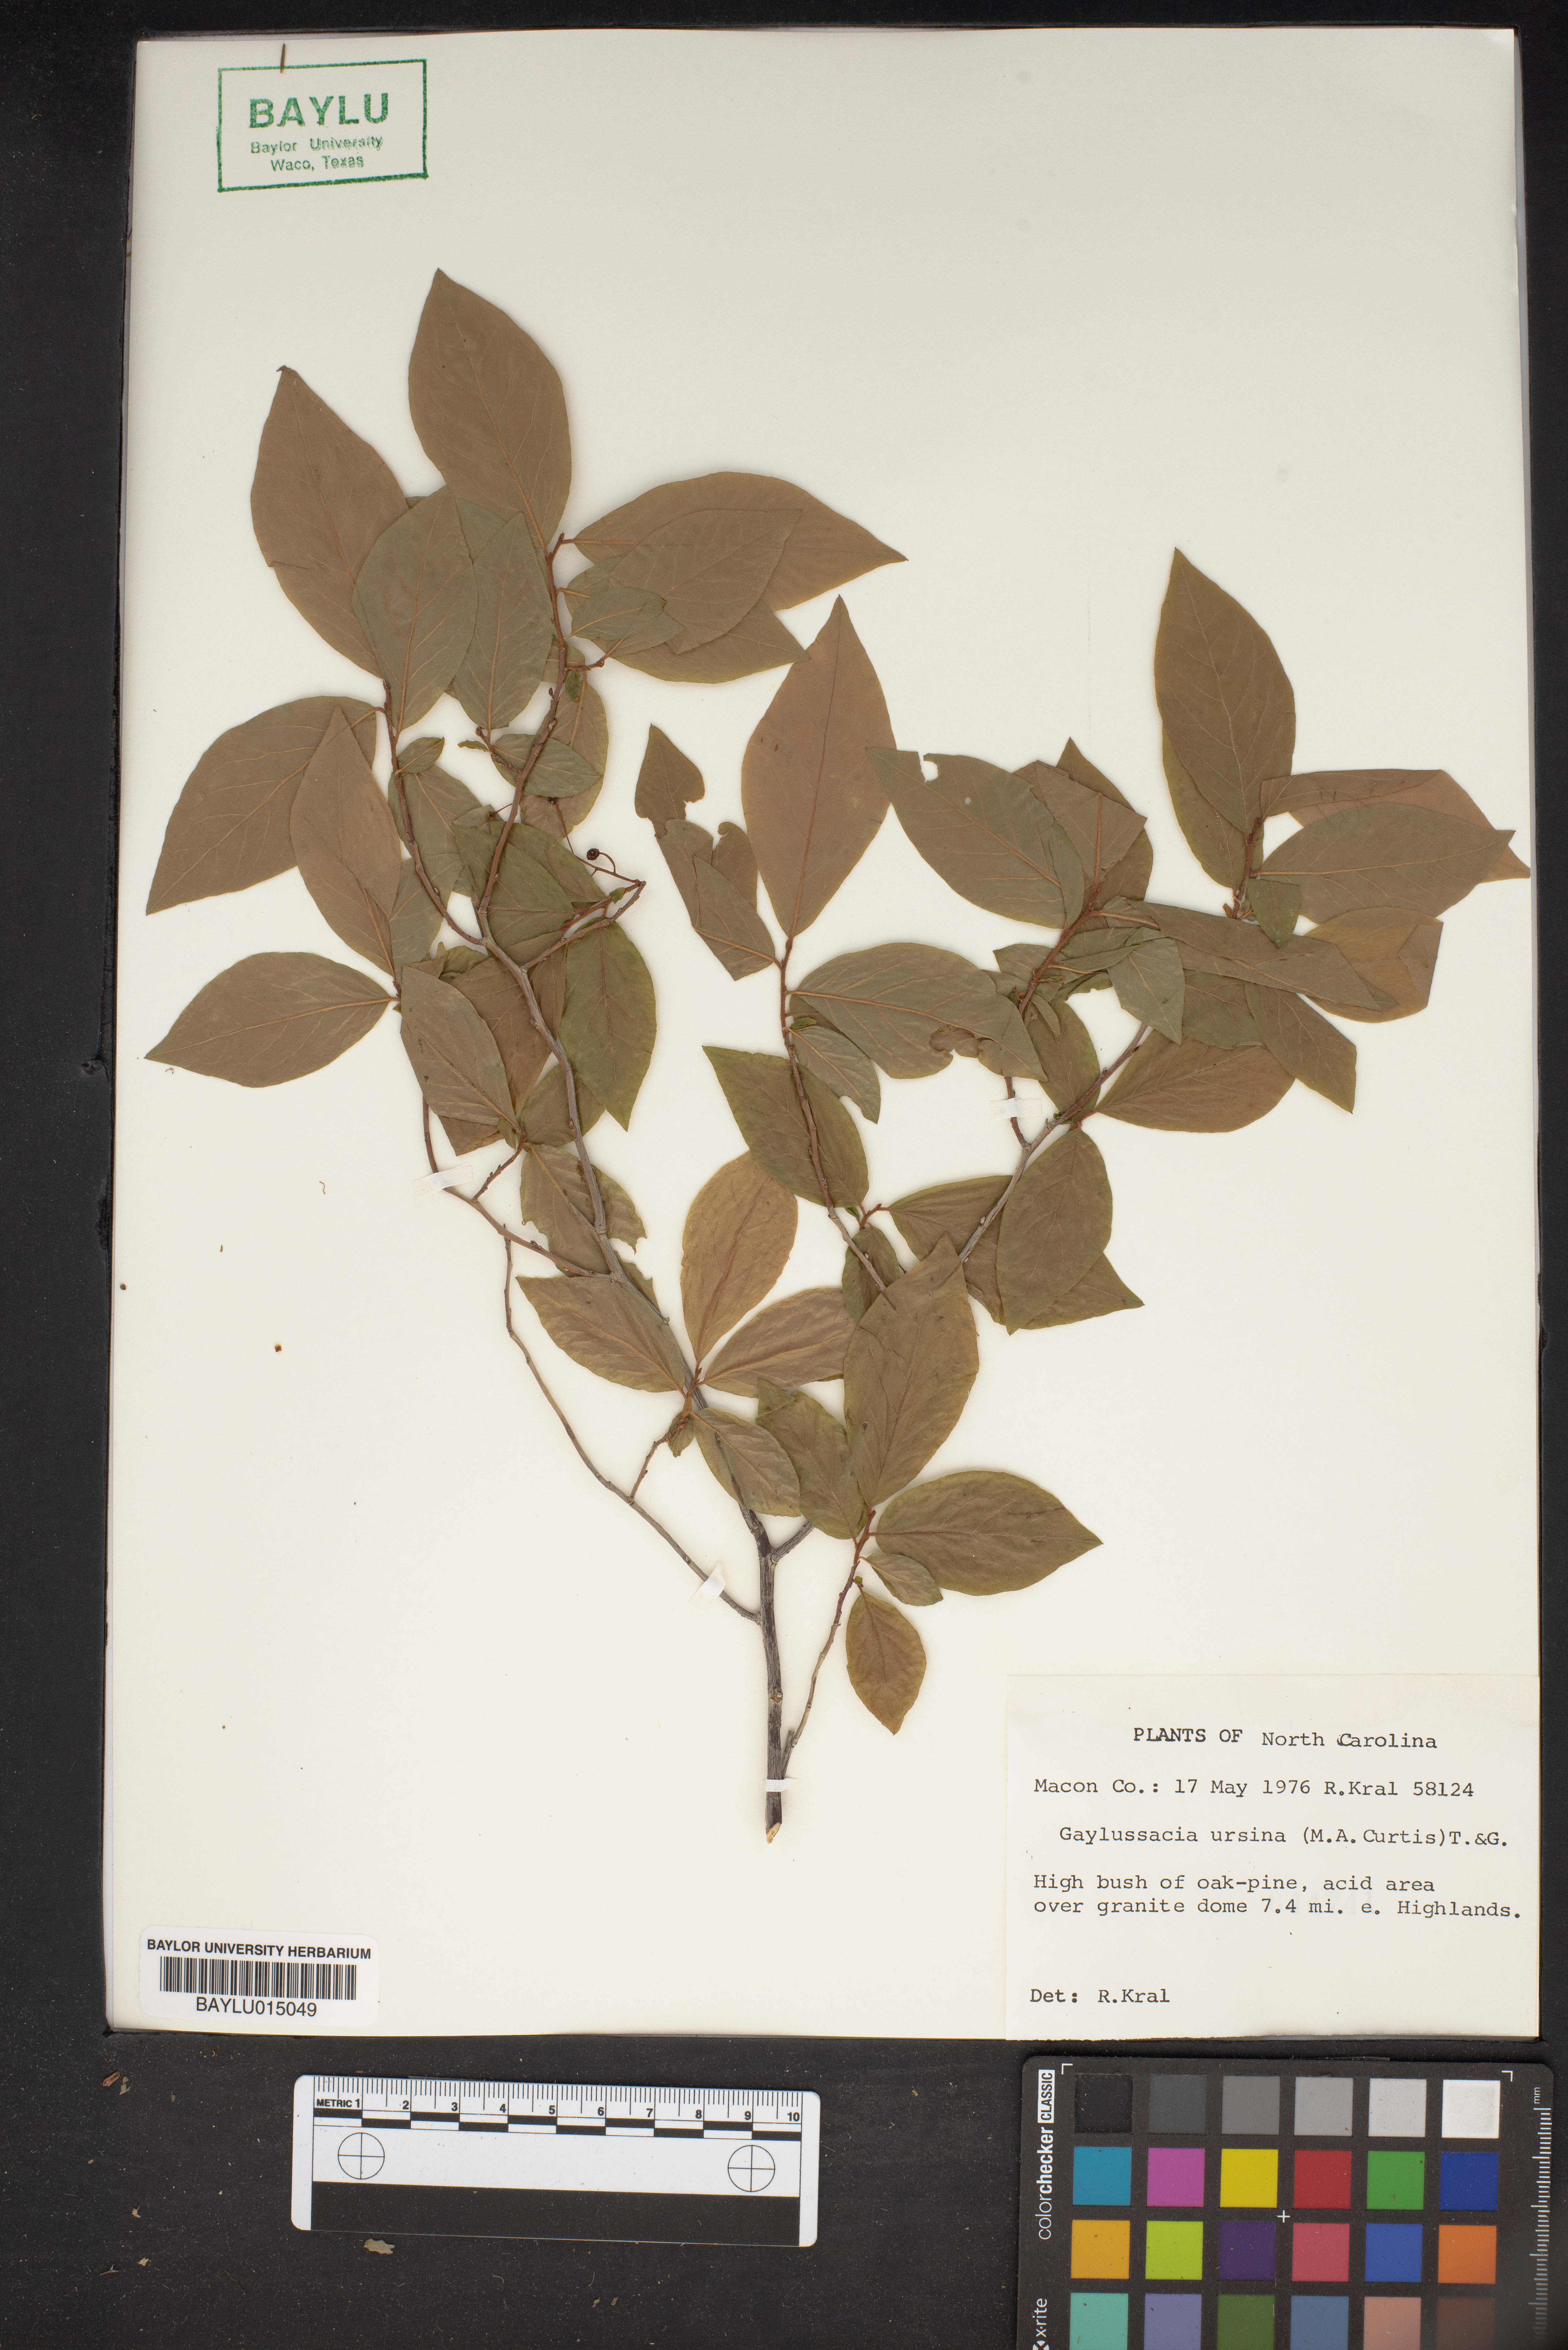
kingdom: Plantae
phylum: Tracheophyta
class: Magnoliopsida
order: Ericales
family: Ericaceae
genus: Gaylussacia
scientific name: Gaylussacia ursina
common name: Bear huckleberry
